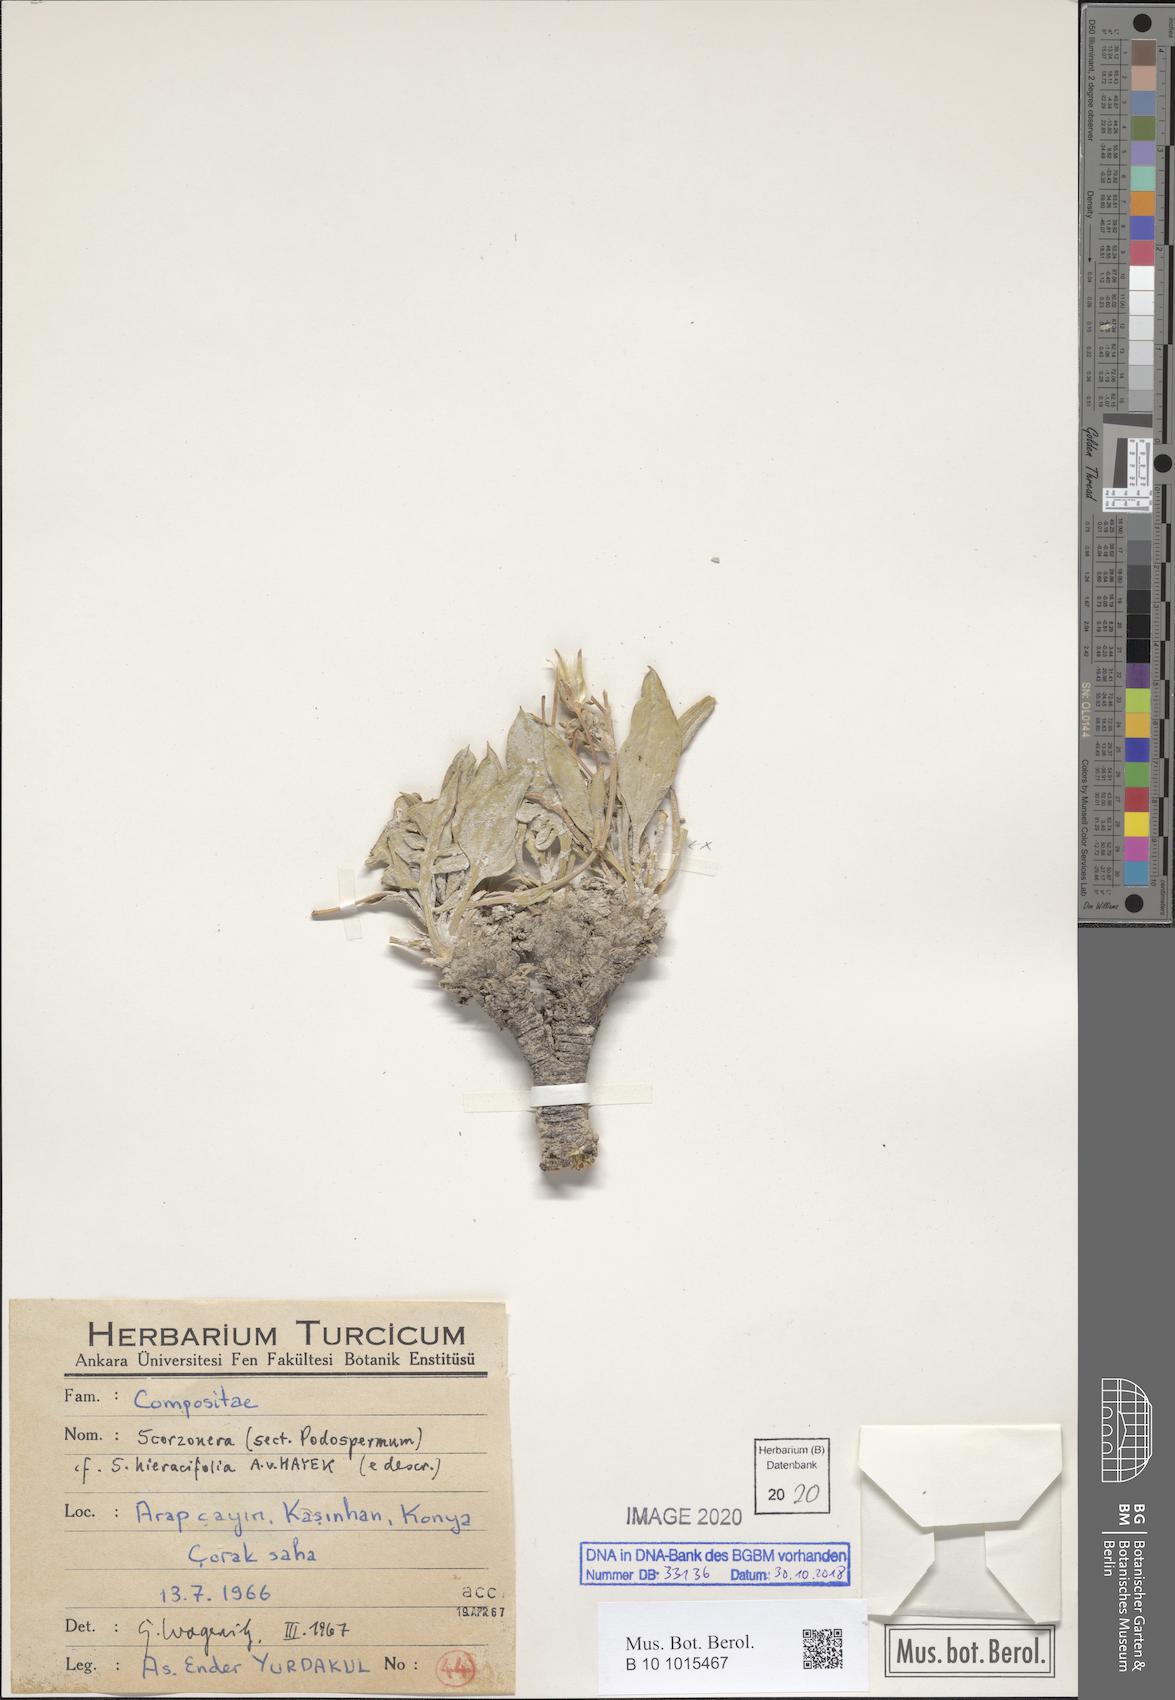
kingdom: Plantae
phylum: Tracheophyta
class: Magnoliopsida
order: Asterales
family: Asteraceae
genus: Scorzonera
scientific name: Scorzonera hieraciifolia
